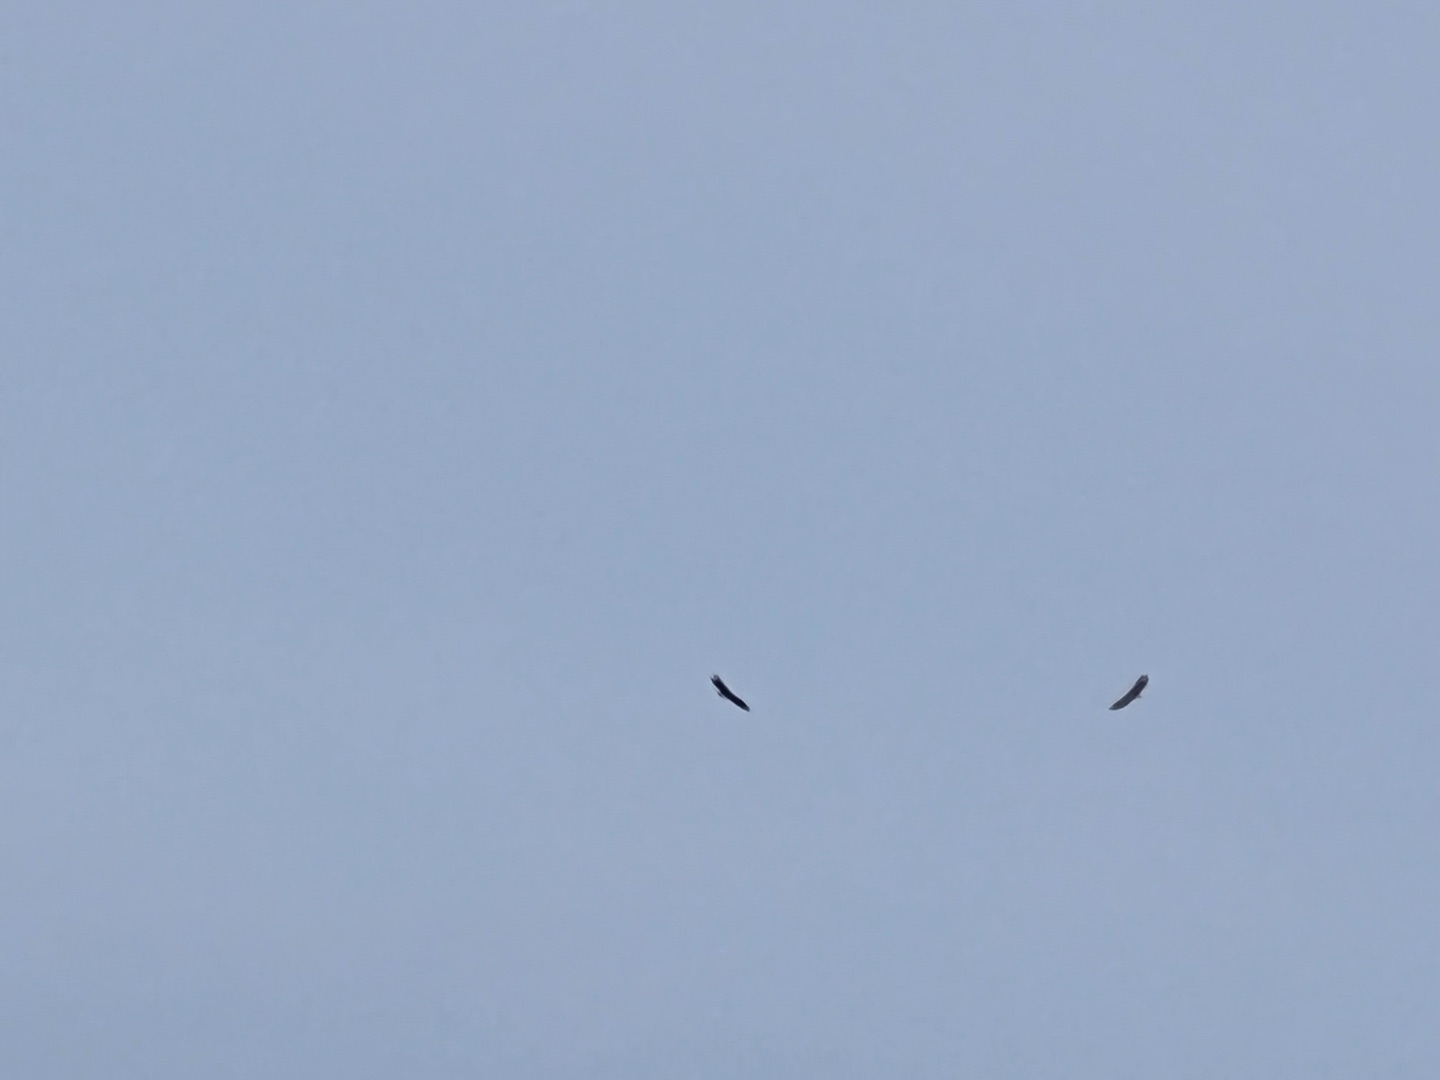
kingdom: Animalia
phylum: Chordata
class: Aves
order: Accipitriformes
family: Accipitridae
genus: Haliaeetus
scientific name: Haliaeetus albicilla
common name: Havørn
